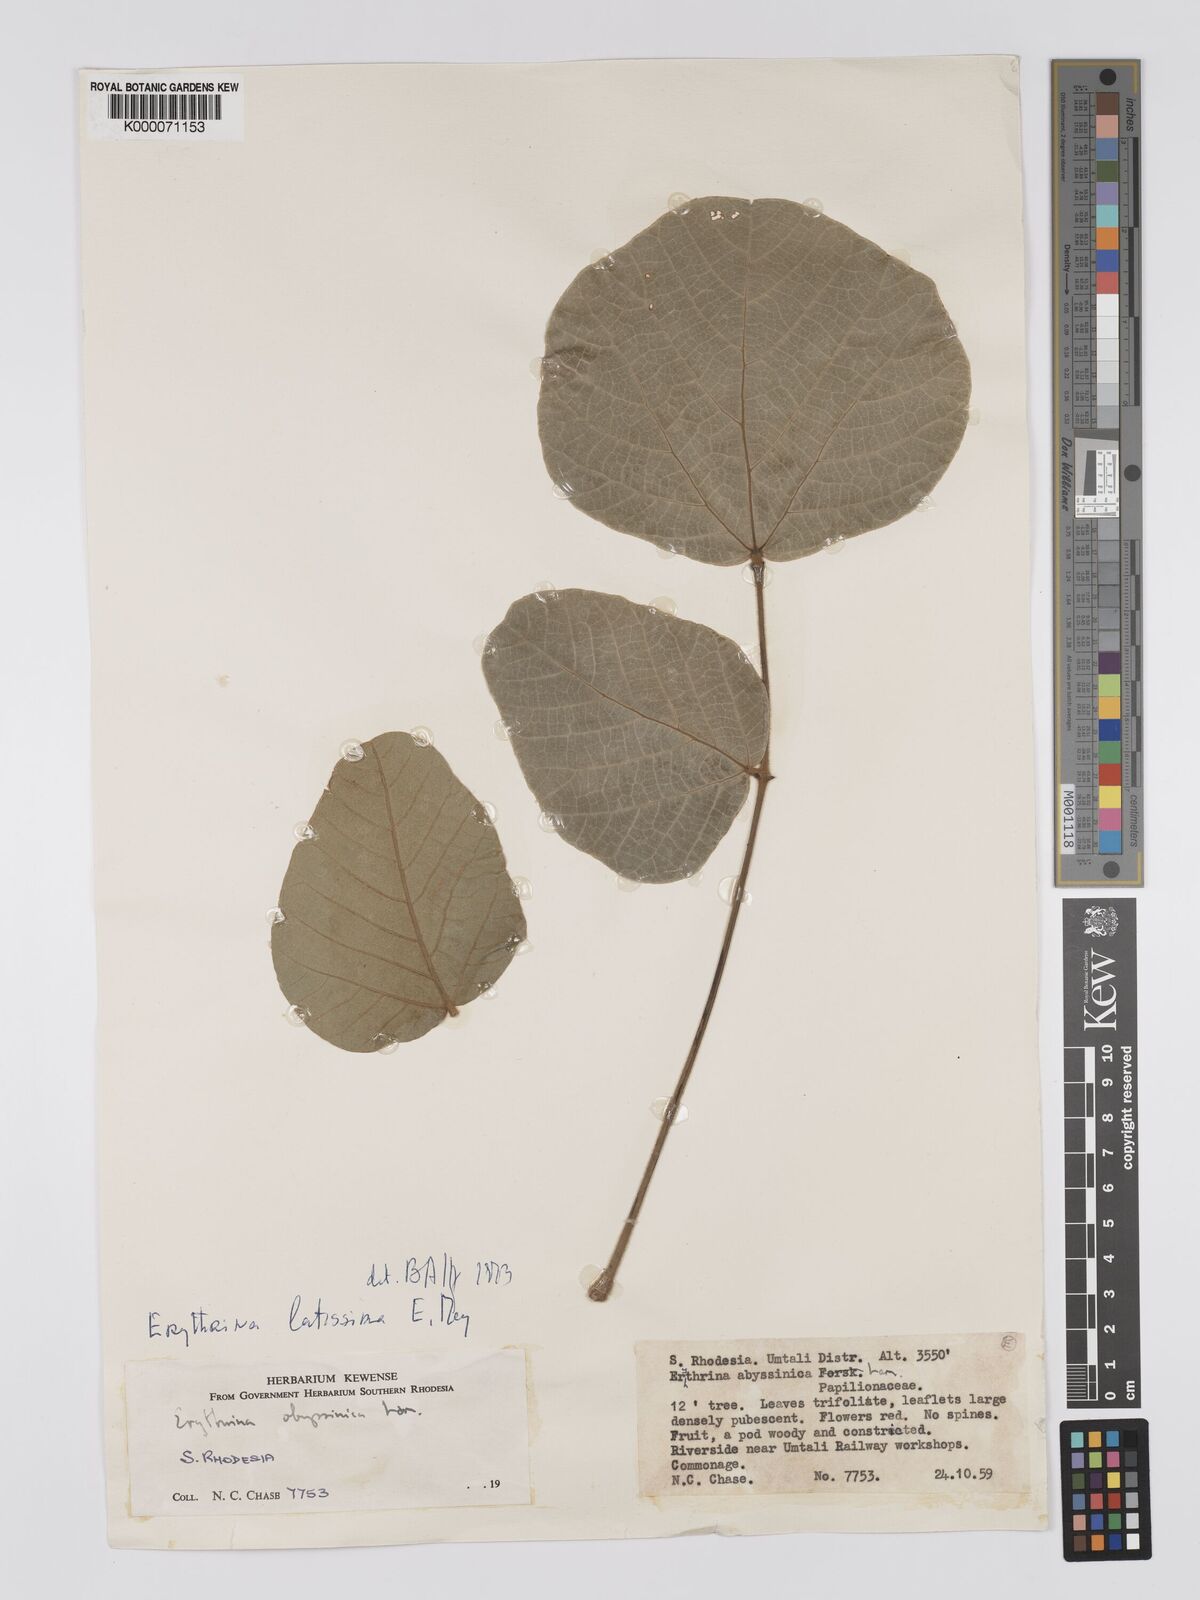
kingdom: Plantae
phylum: Tracheophyta
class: Magnoliopsida
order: Fabales
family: Fabaceae
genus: Erythrina
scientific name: Erythrina latissima
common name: Broad-leaved coral tree
